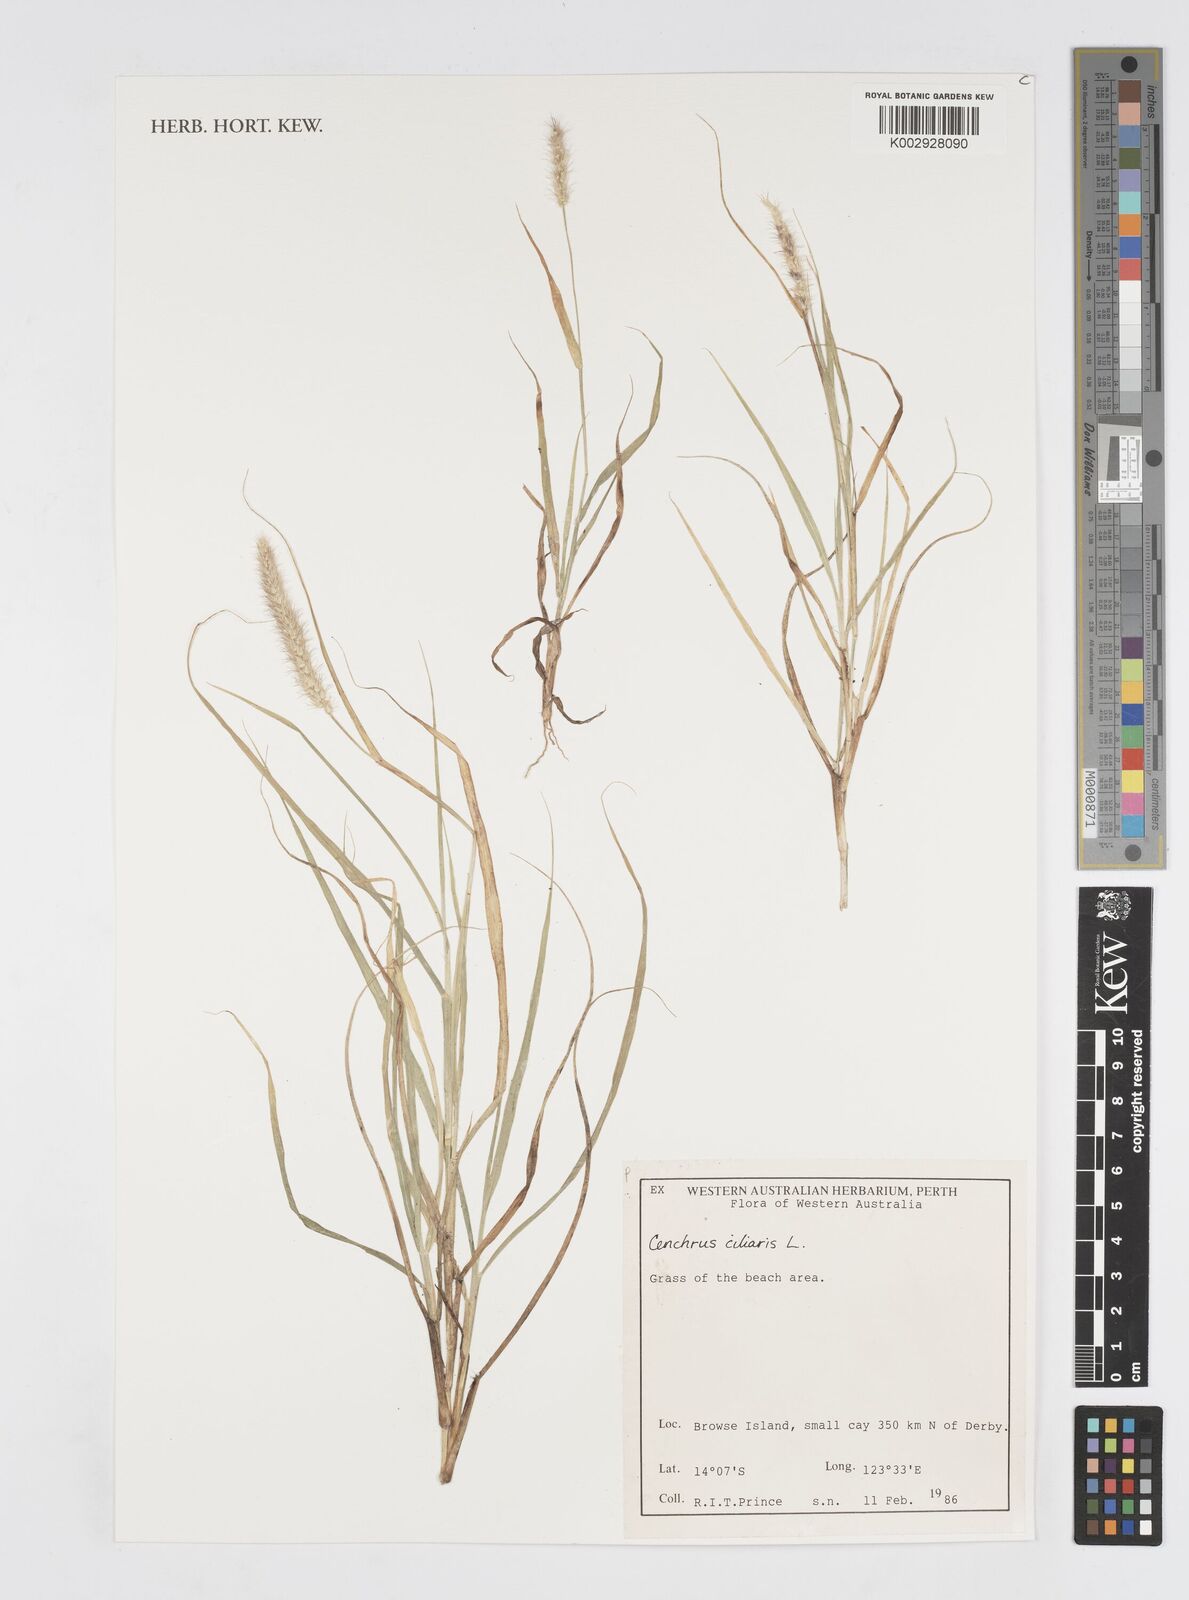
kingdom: Plantae
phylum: Tracheophyta
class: Liliopsida
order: Poales
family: Poaceae
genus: Cenchrus
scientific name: Cenchrus ciliaris
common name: Buffelgrass
